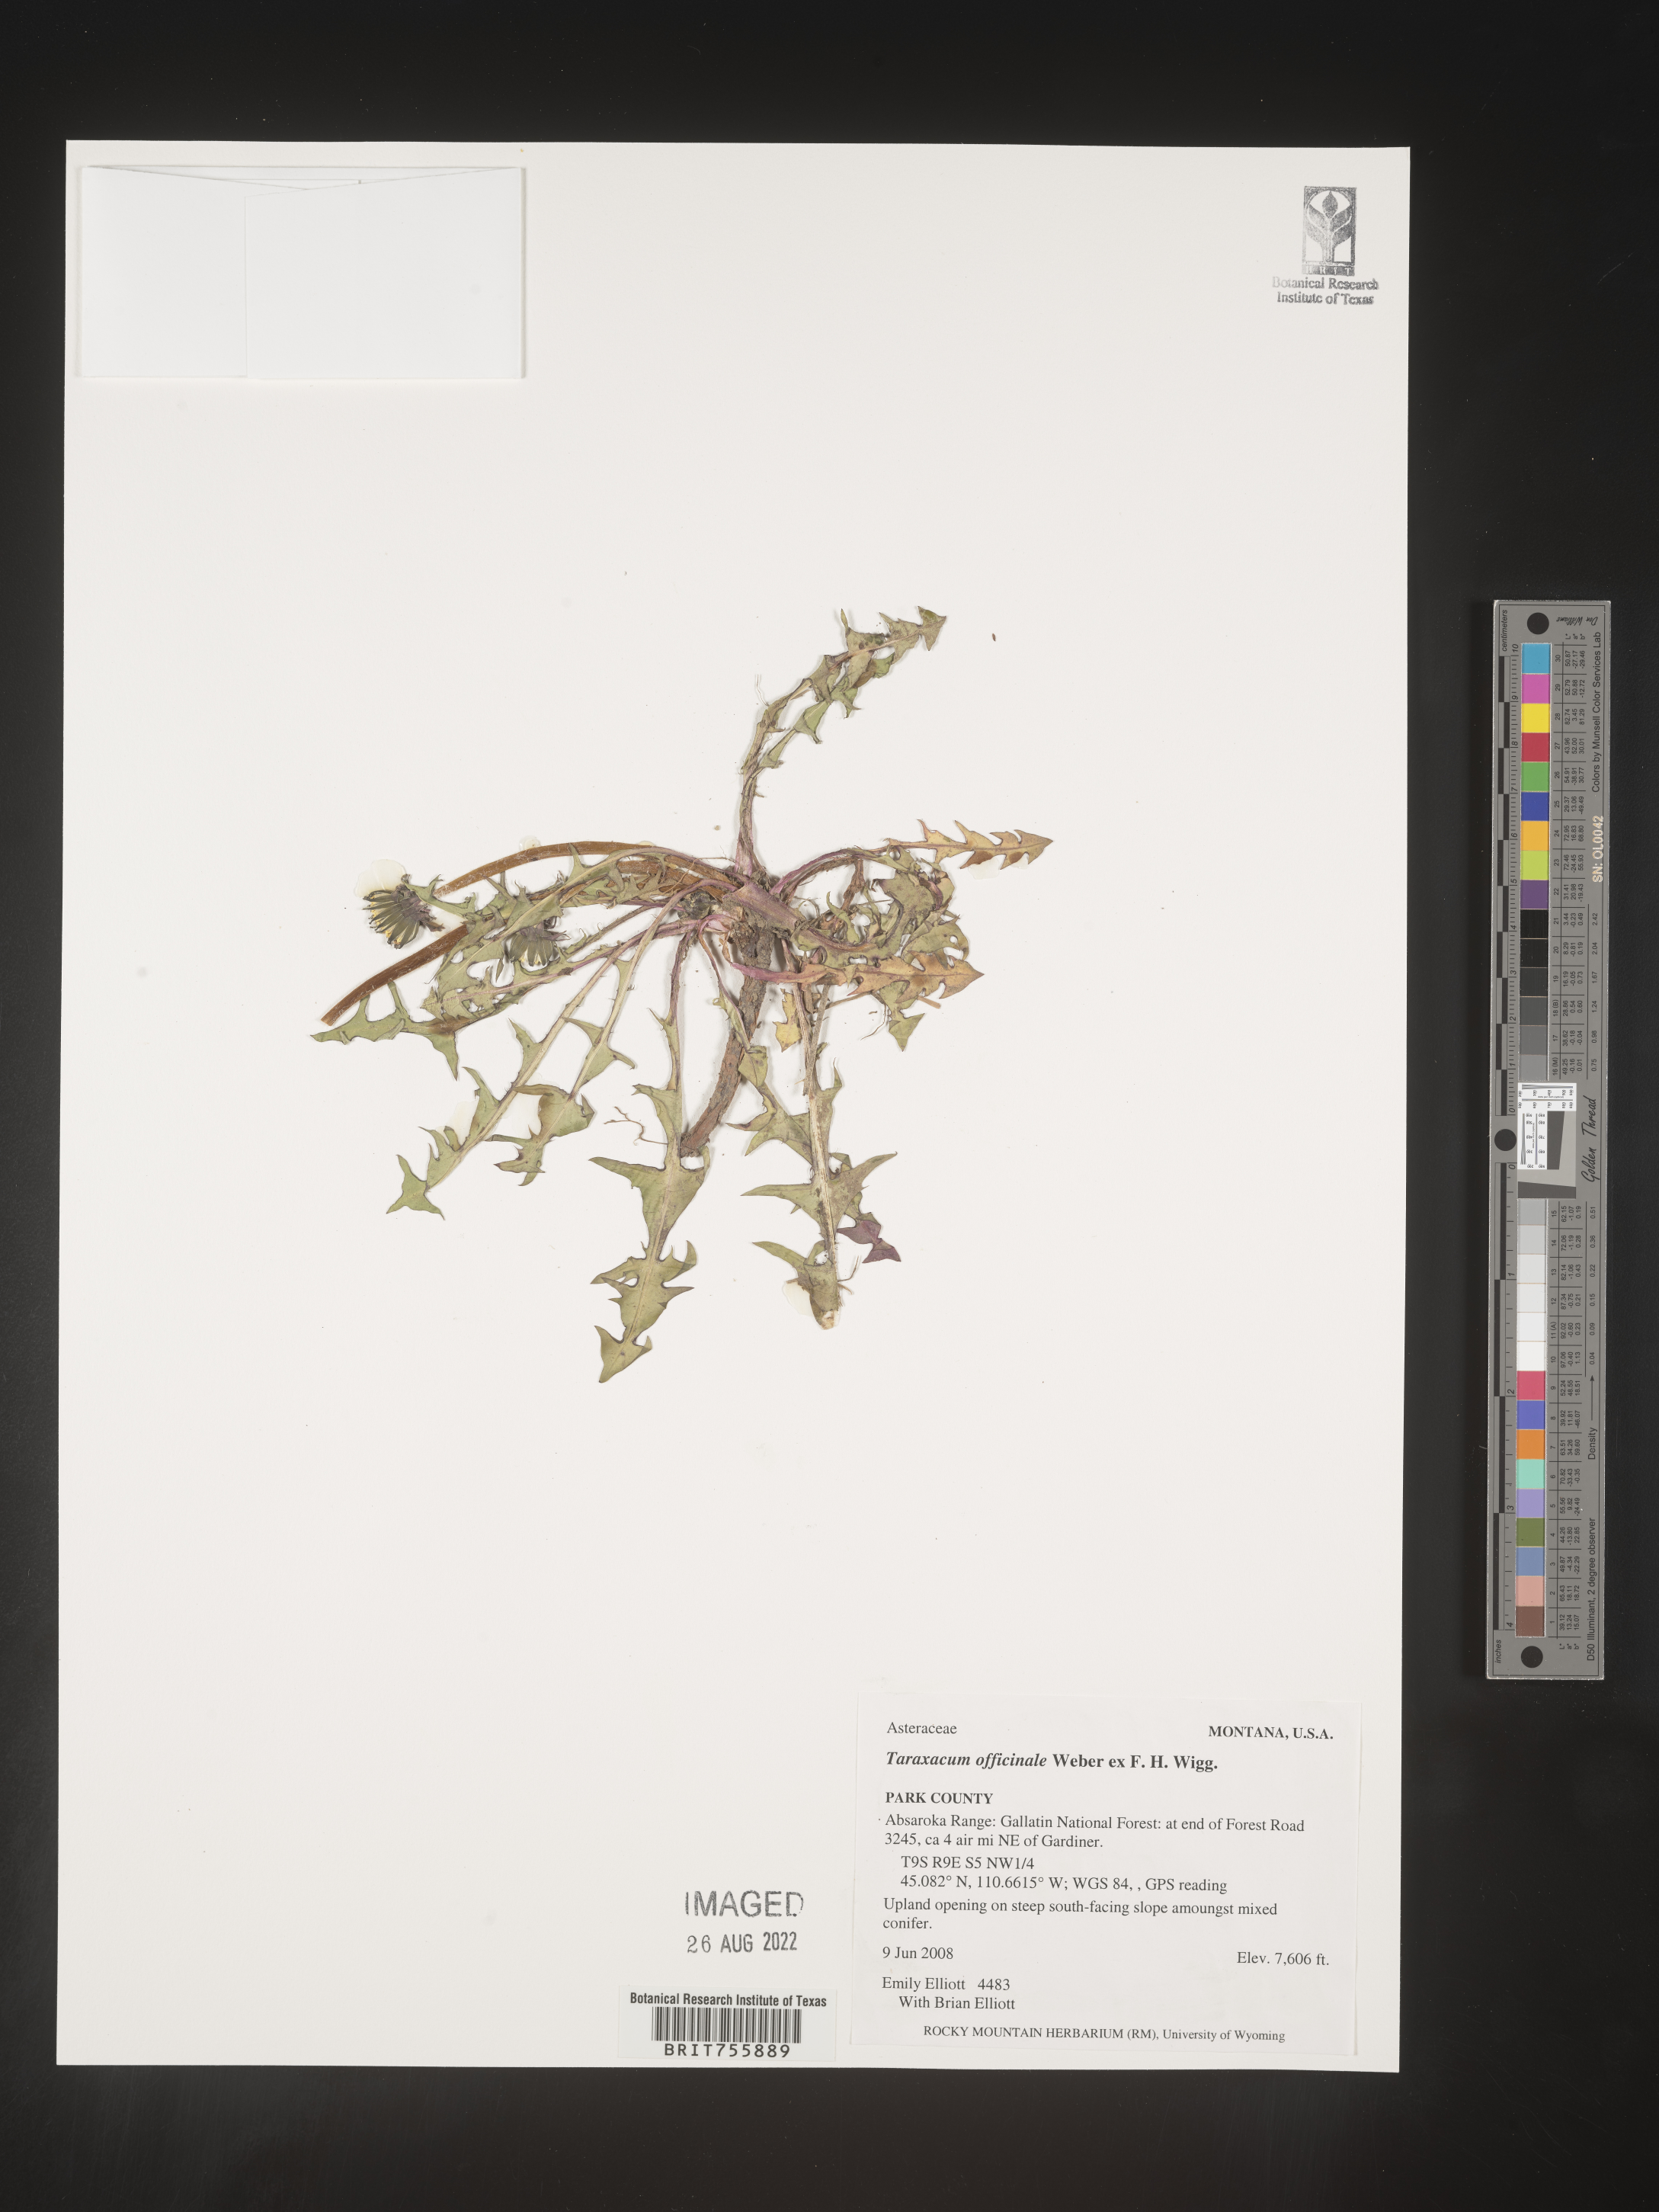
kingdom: Plantae
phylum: Tracheophyta
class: Magnoliopsida
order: Asterales
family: Asteraceae
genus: Taraxacum
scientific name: Taraxacum officinale
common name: Common dandelion
